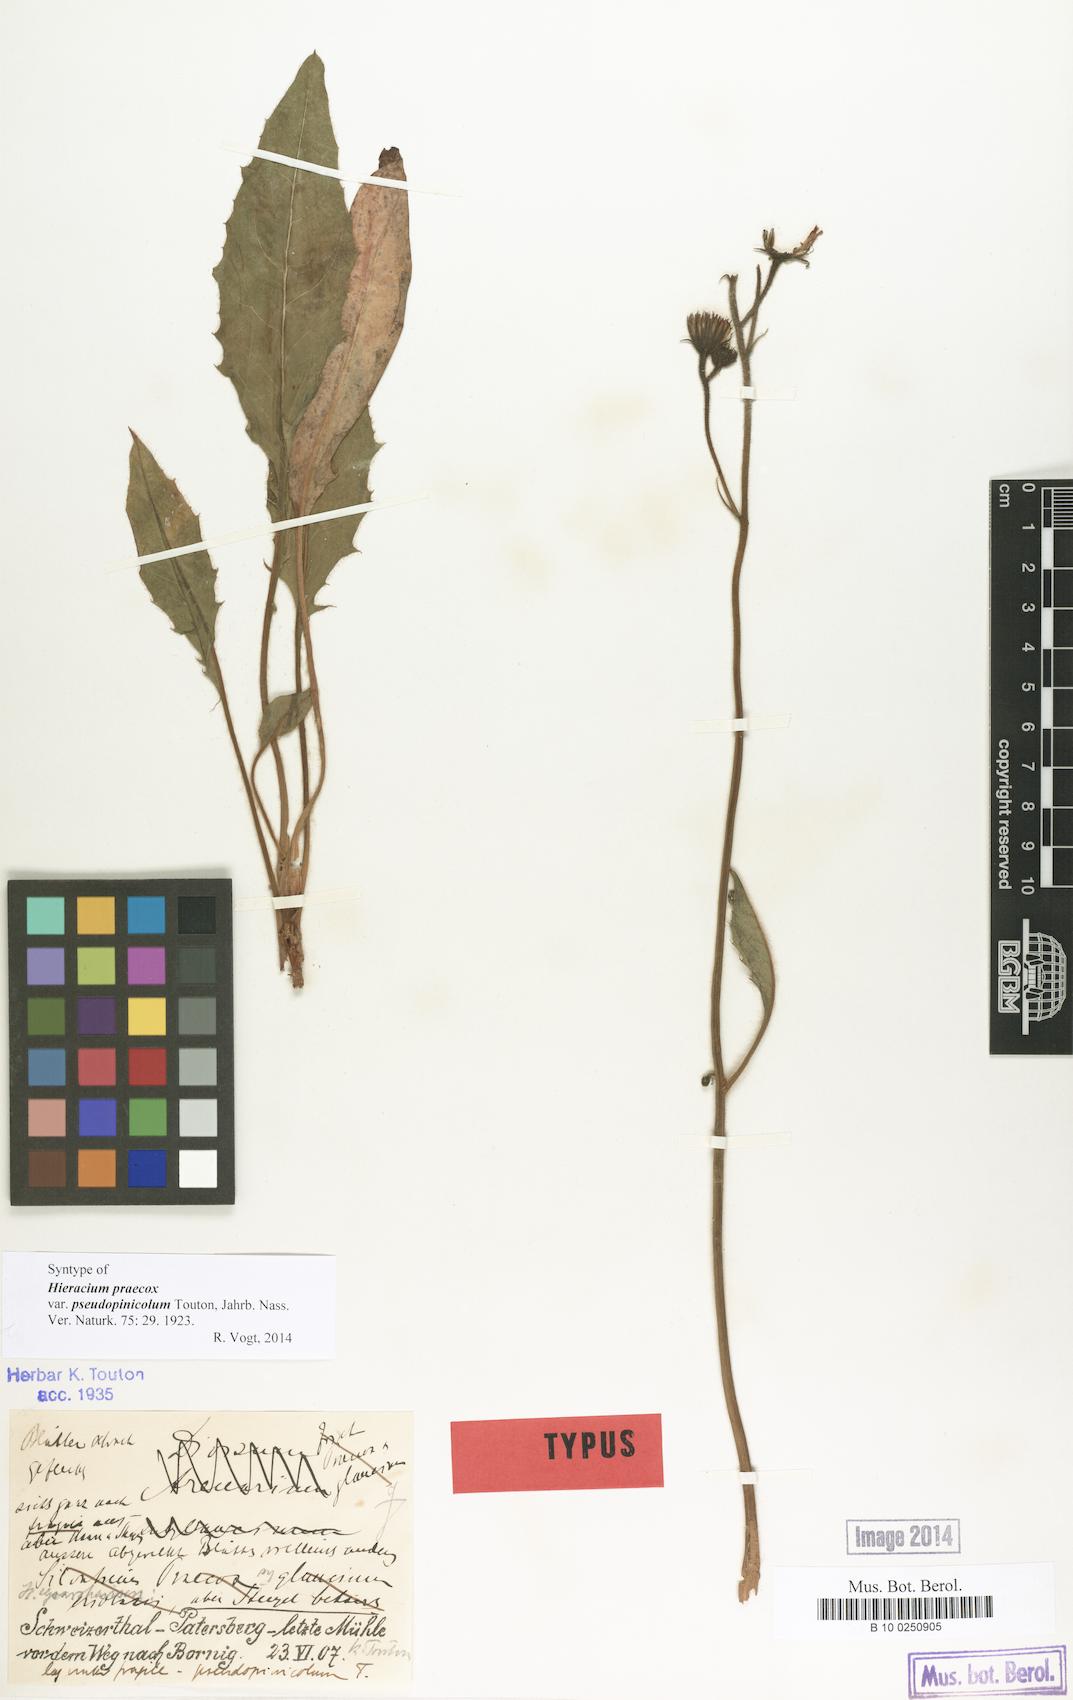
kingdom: Plantae
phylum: Tracheophyta
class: Magnoliopsida
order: Asterales
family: Asteraceae
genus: Hieracium
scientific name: Hieracium praecox
